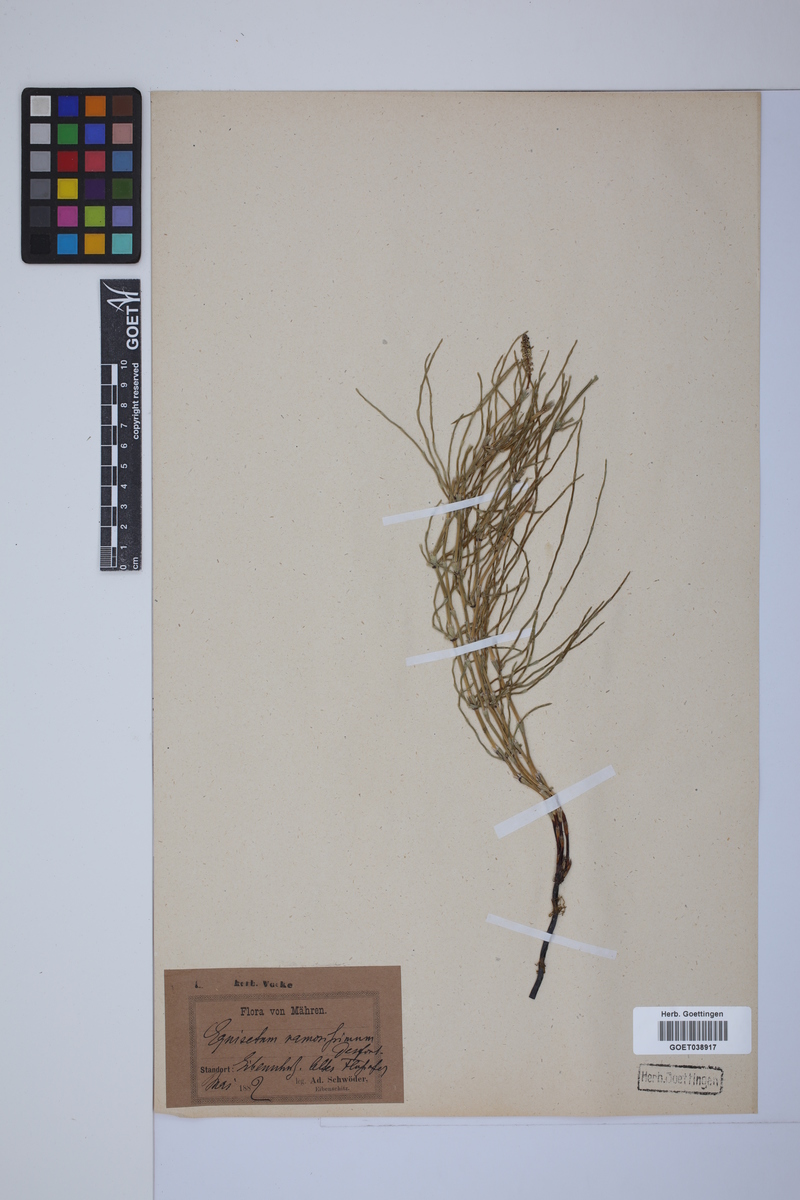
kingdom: Plantae
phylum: Tracheophyta
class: Polypodiopsida
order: Equisetales
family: Equisetaceae
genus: Equisetum
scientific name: Equisetum palustre
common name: Marsh horsetail
